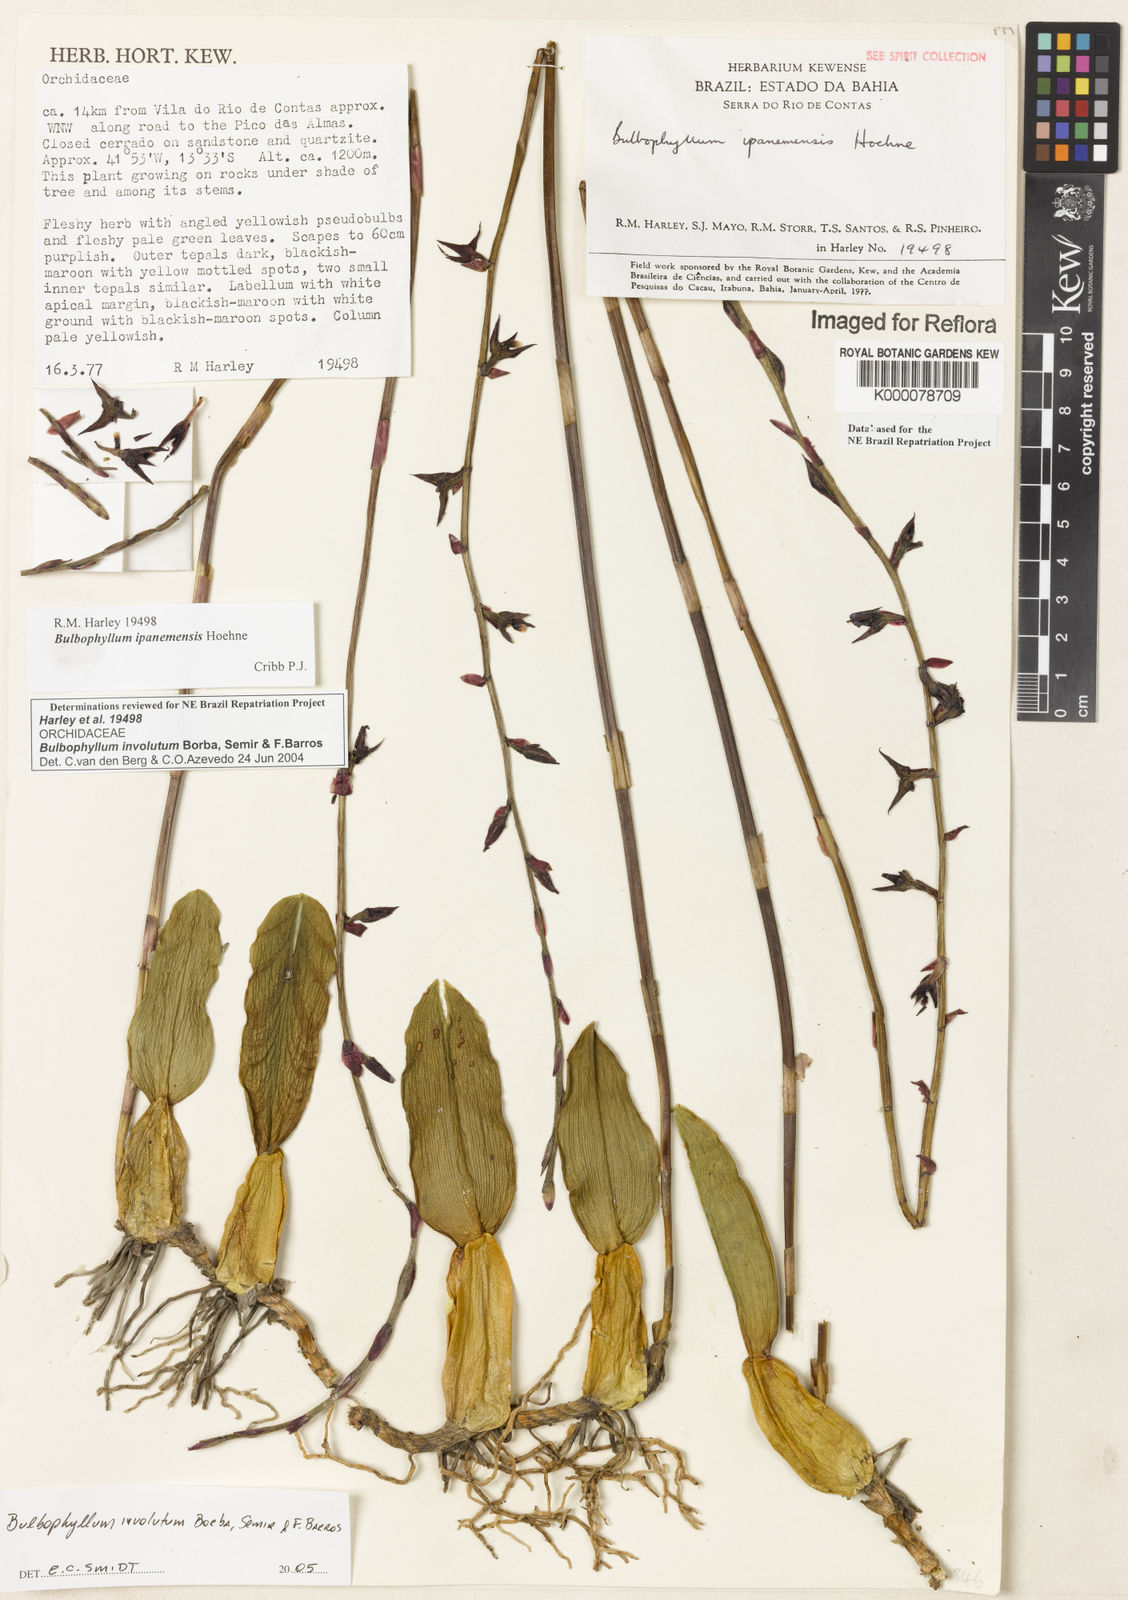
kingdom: Plantae
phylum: Tracheophyta
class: Liliopsida
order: Asparagales
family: Orchidaceae
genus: Bulbophyllum
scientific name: Bulbophyllum
